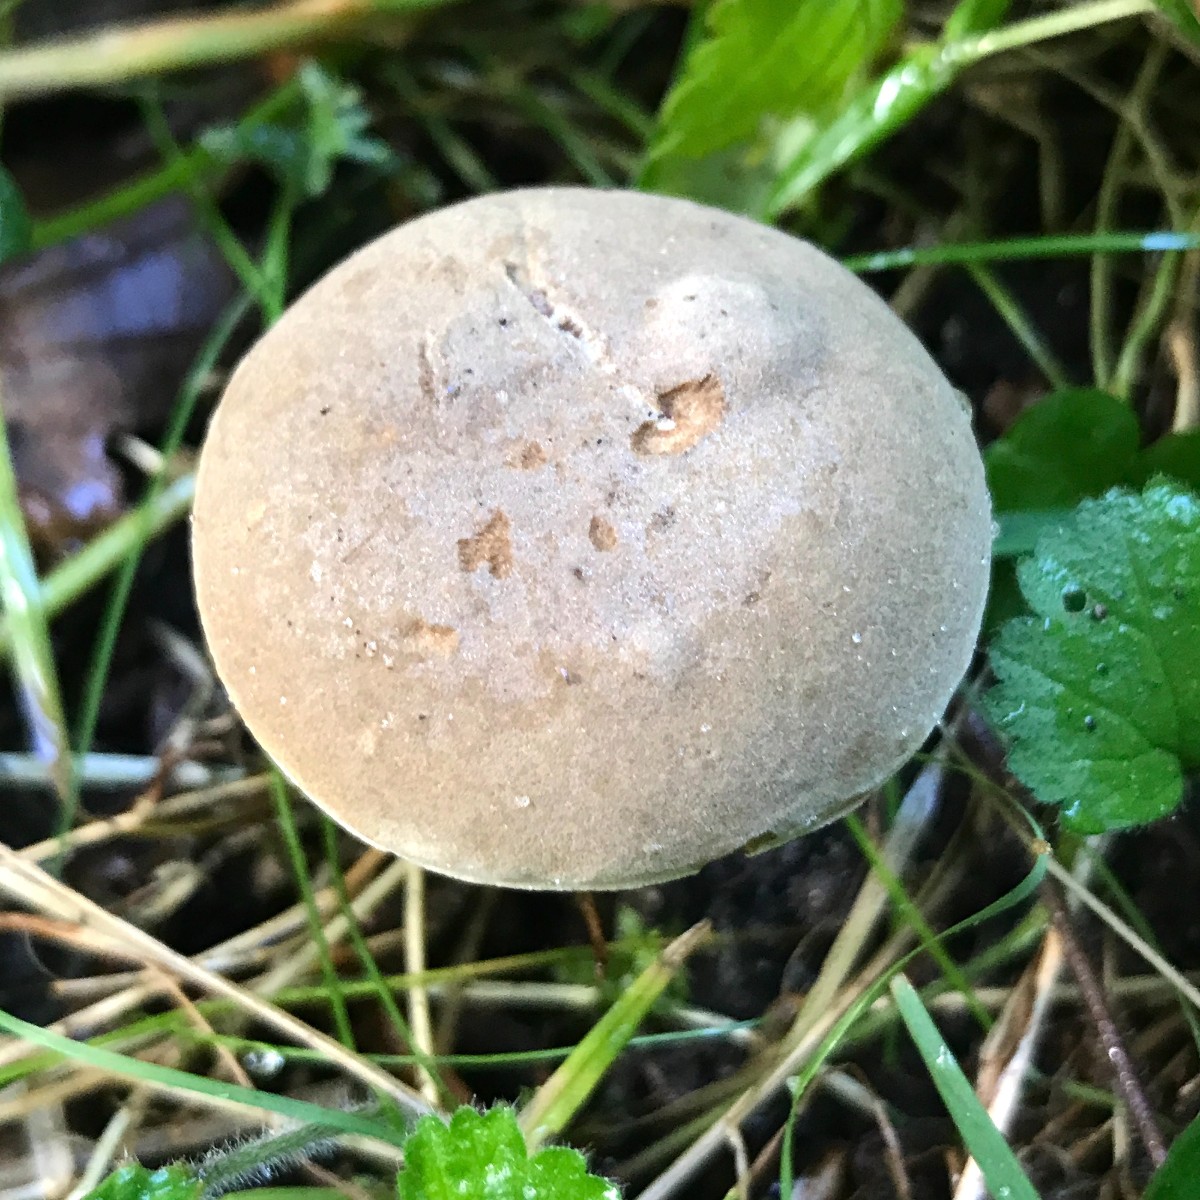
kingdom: Fungi
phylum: Basidiomycota
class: Agaricomycetes
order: Boletales
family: Boletaceae
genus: Xerocomus
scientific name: Xerocomus
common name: filtrørhat
